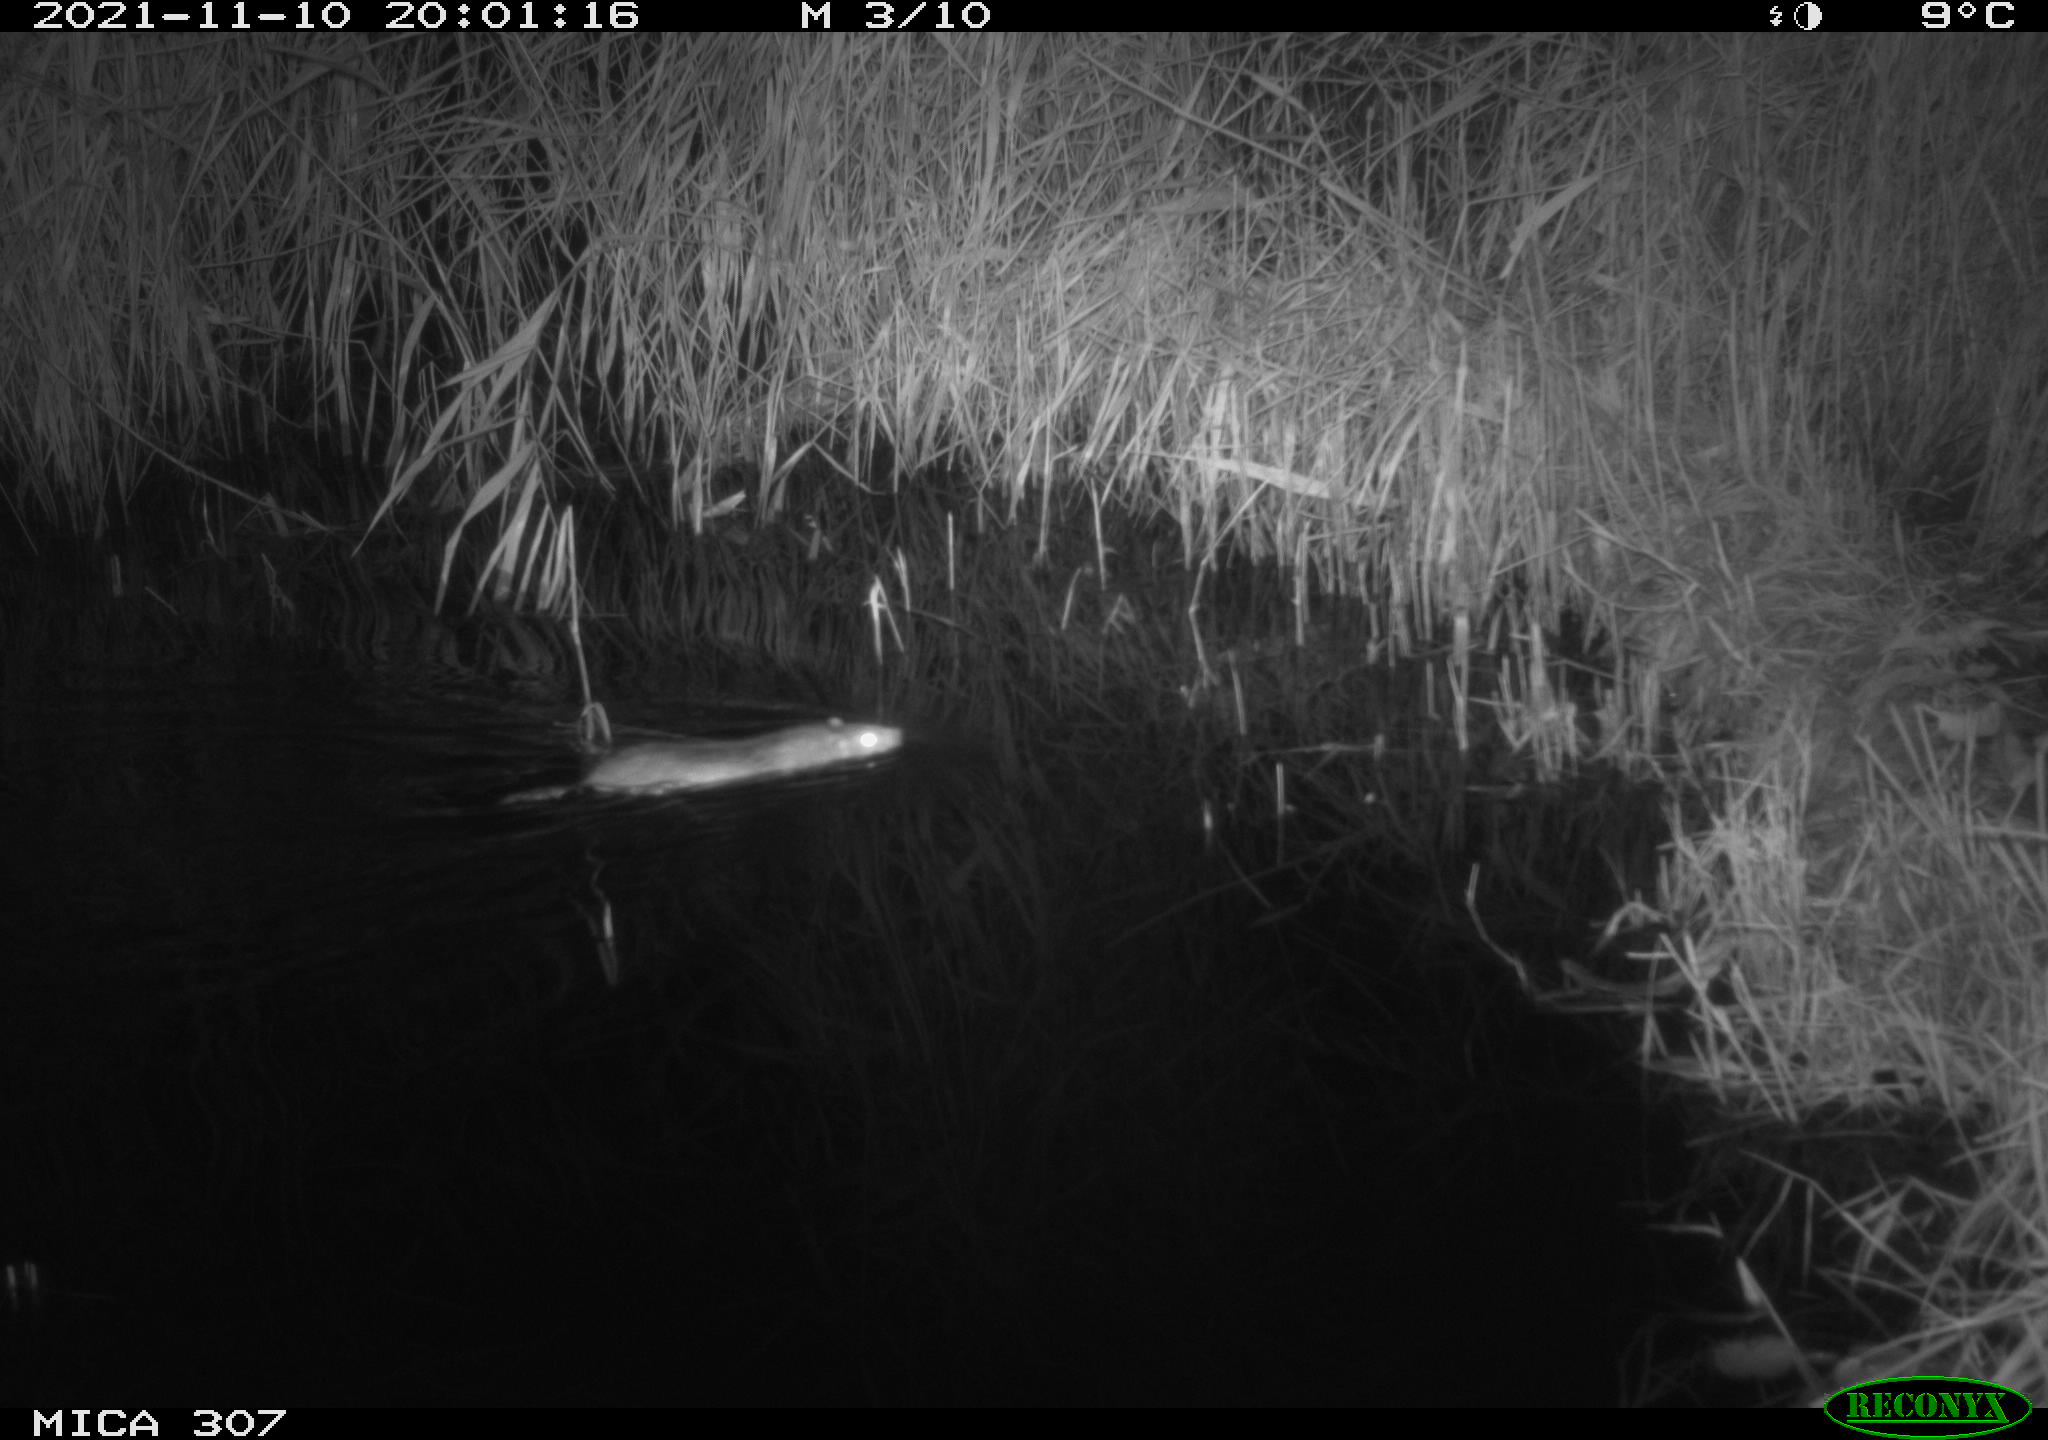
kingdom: Animalia
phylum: Chordata
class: Mammalia
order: Rodentia
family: Muridae
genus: Rattus
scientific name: Rattus norvegicus
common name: Brown rat
